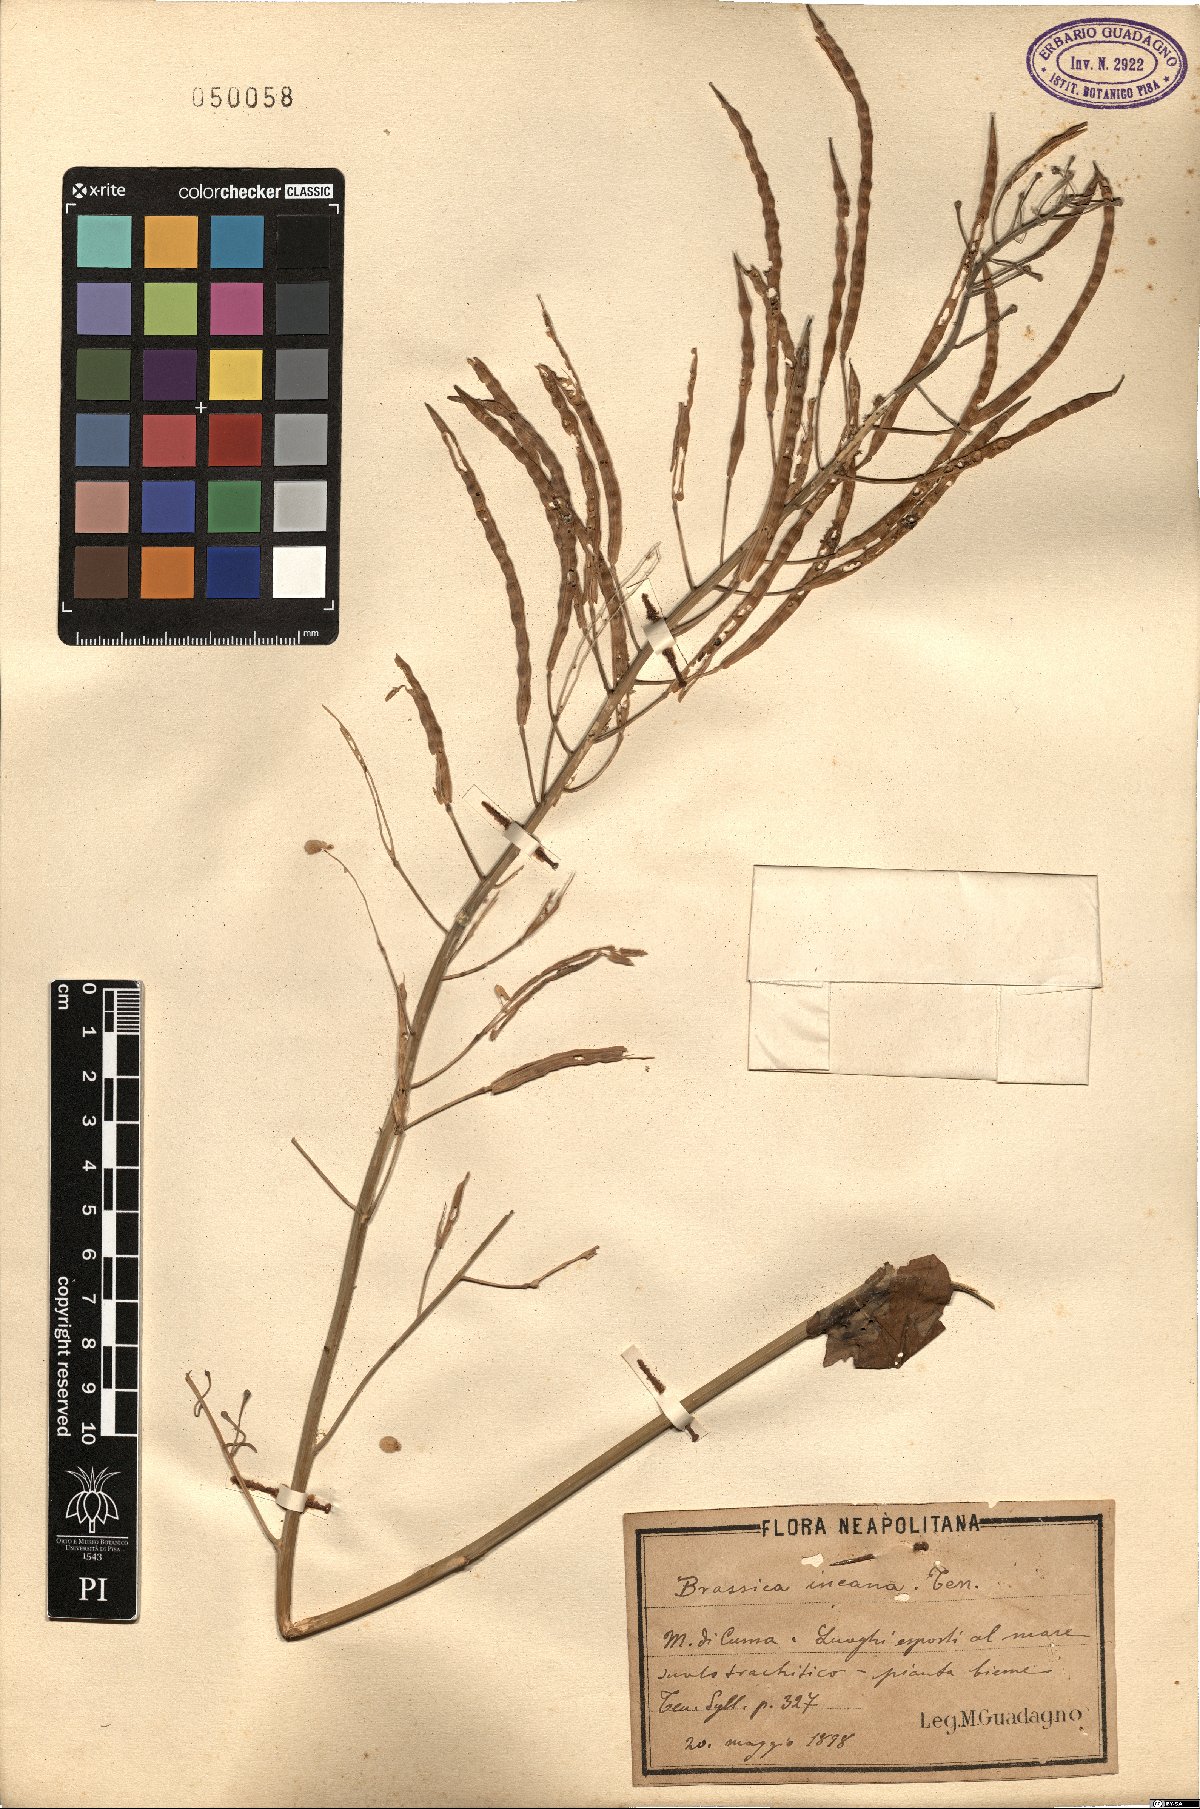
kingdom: Plantae
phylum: Tracheophyta
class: Magnoliopsida
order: Brassicales
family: Brassicaceae
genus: Brassica
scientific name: Brassica incana
